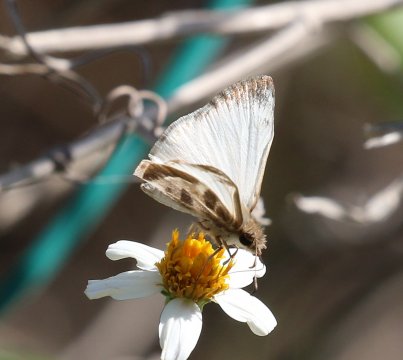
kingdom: Animalia
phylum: Arthropoda
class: Insecta
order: Lepidoptera
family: Hesperiidae
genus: Heliopetes
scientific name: Heliopetes macaira
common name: Turk's-cap White-Skipper
